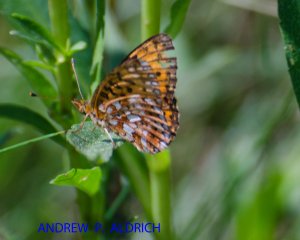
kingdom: Animalia
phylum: Arthropoda
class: Insecta
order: Lepidoptera
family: Nymphalidae
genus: Boloria
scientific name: Boloria selene
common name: Silver-bordered Fritillary
